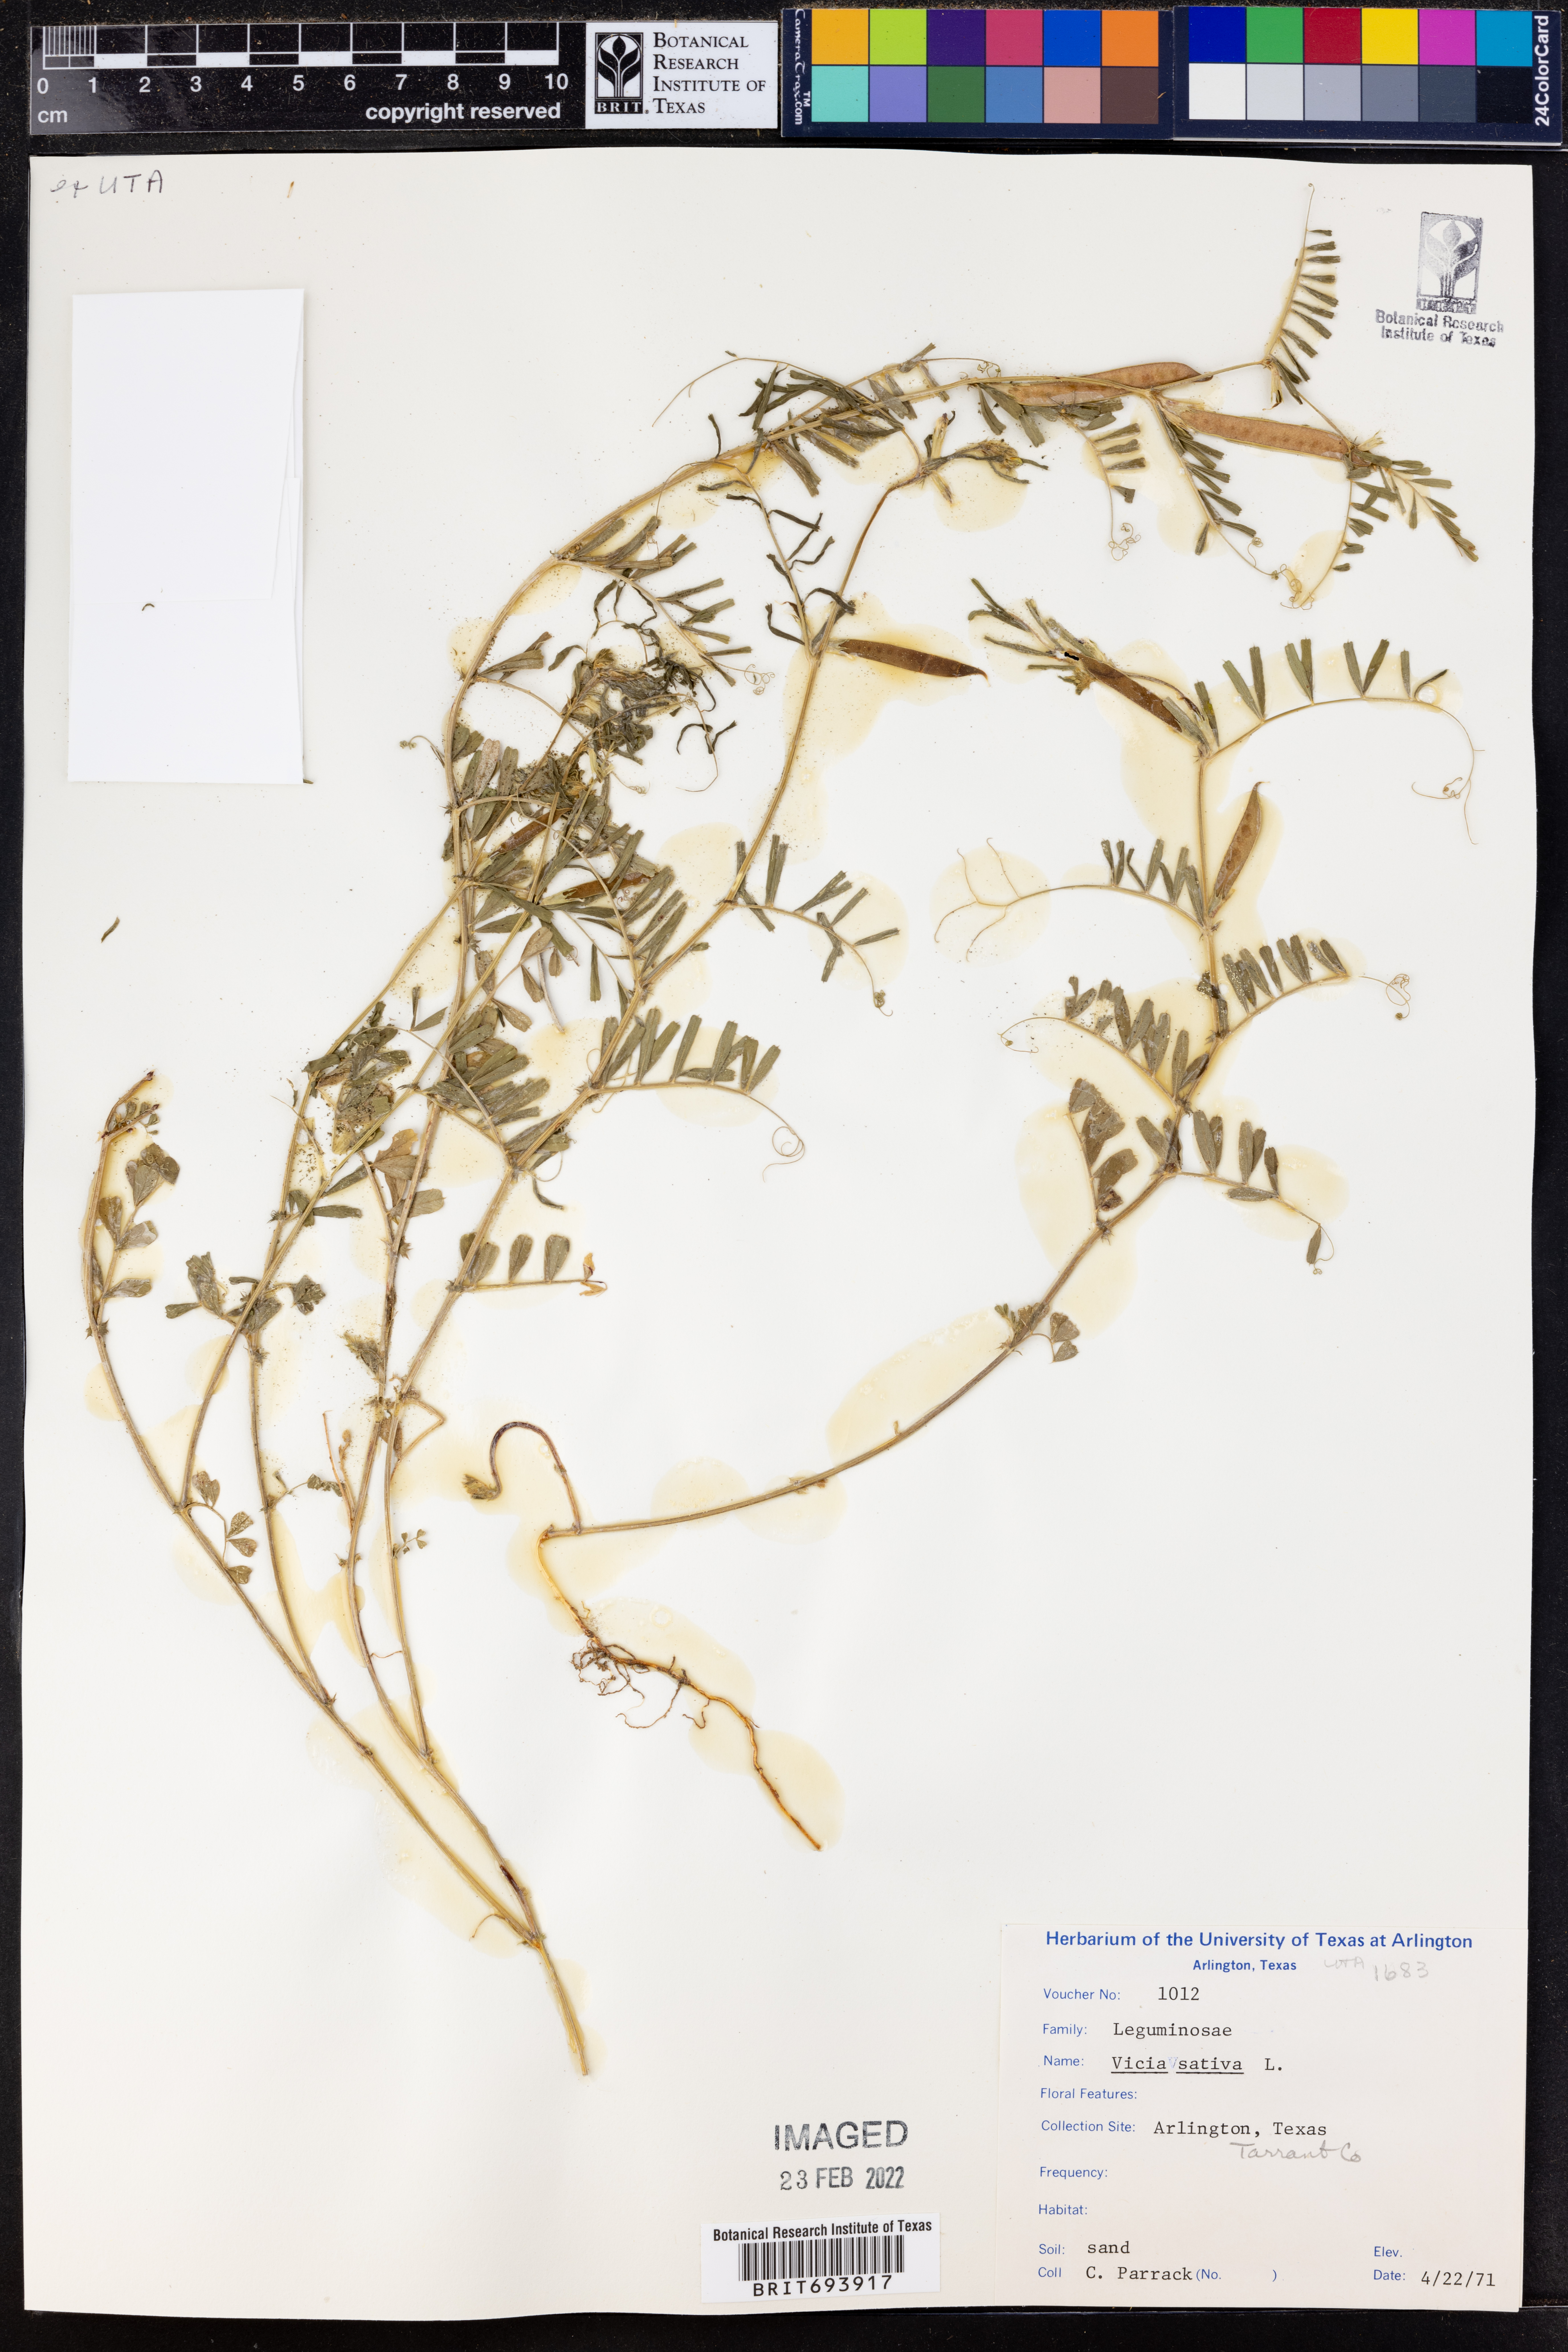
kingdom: Plantae
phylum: Tracheophyta
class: Magnoliopsida
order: Fabales
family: Fabaceae
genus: Vicia
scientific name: Vicia sativa
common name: Garden vetch
